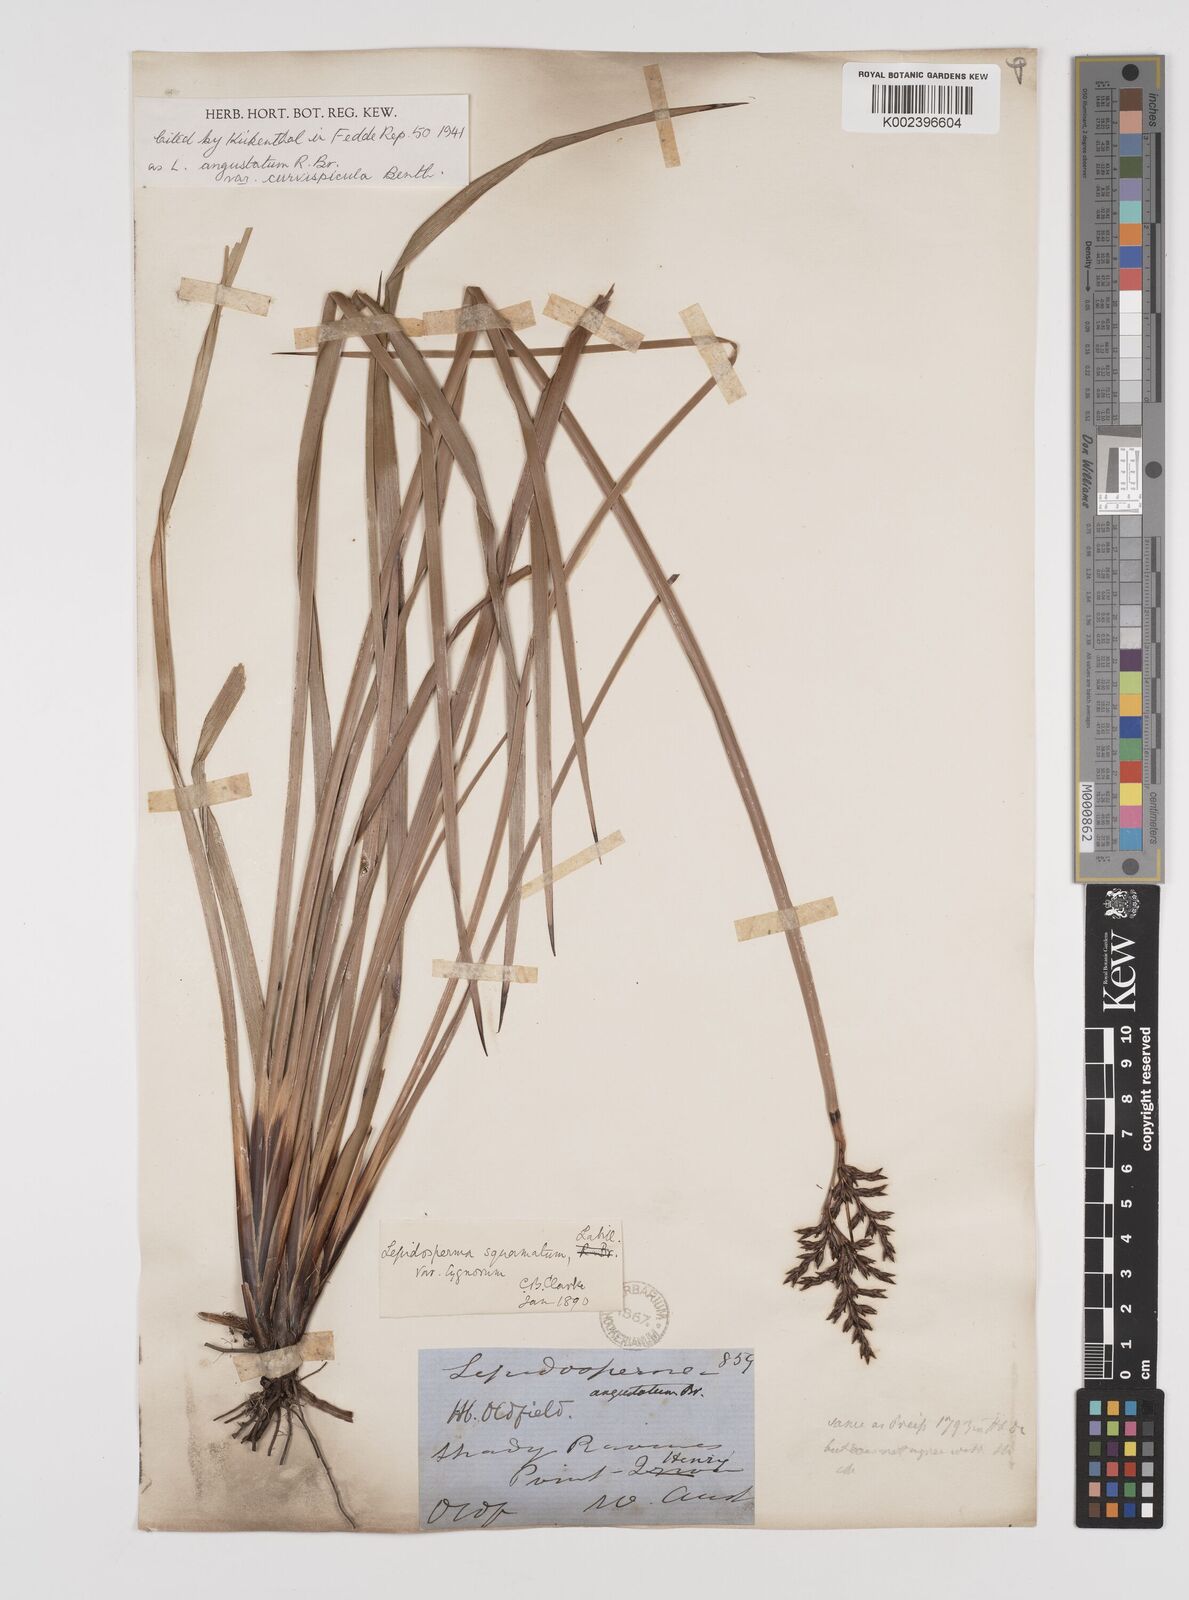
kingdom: Plantae
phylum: Tracheophyta
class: Liliopsida
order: Poales
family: Cyperaceae
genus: Lepidosperma
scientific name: Lepidosperma angustatum
